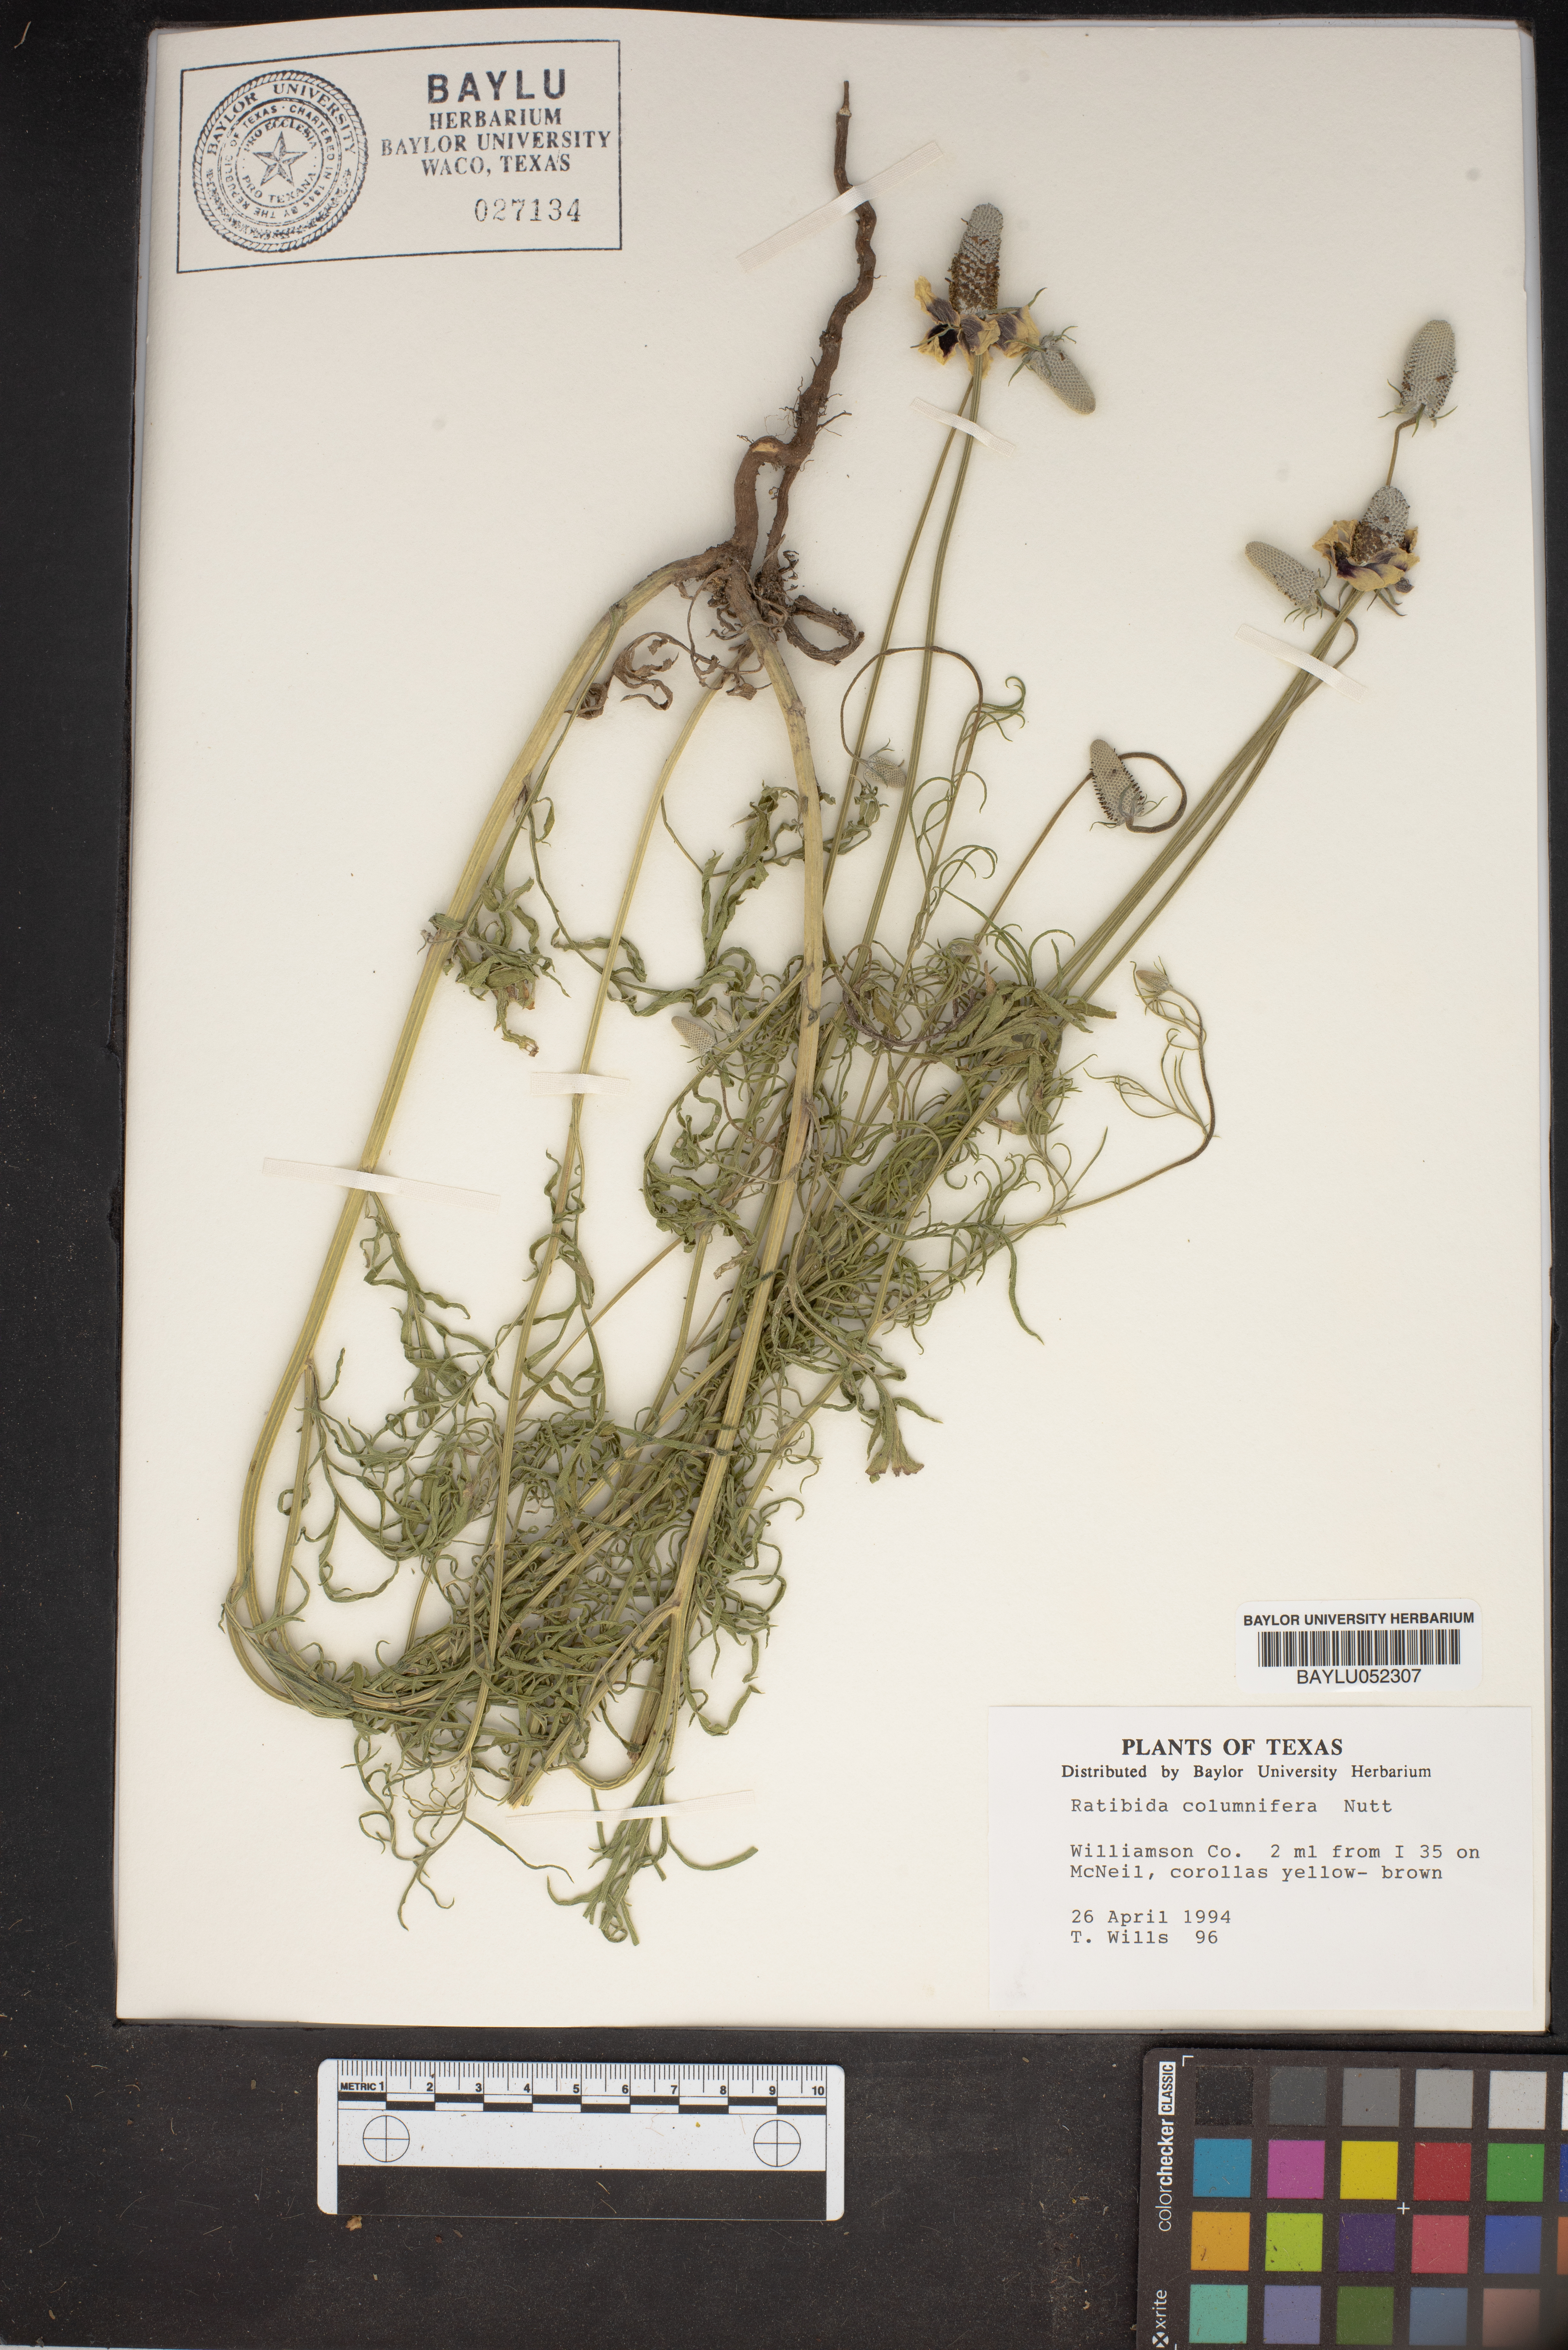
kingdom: Plantae
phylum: Tracheophyta
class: Magnoliopsida
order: Asterales
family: Asteraceae
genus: Ratibida
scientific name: Ratibida columnifera
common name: Prairie coneflower
